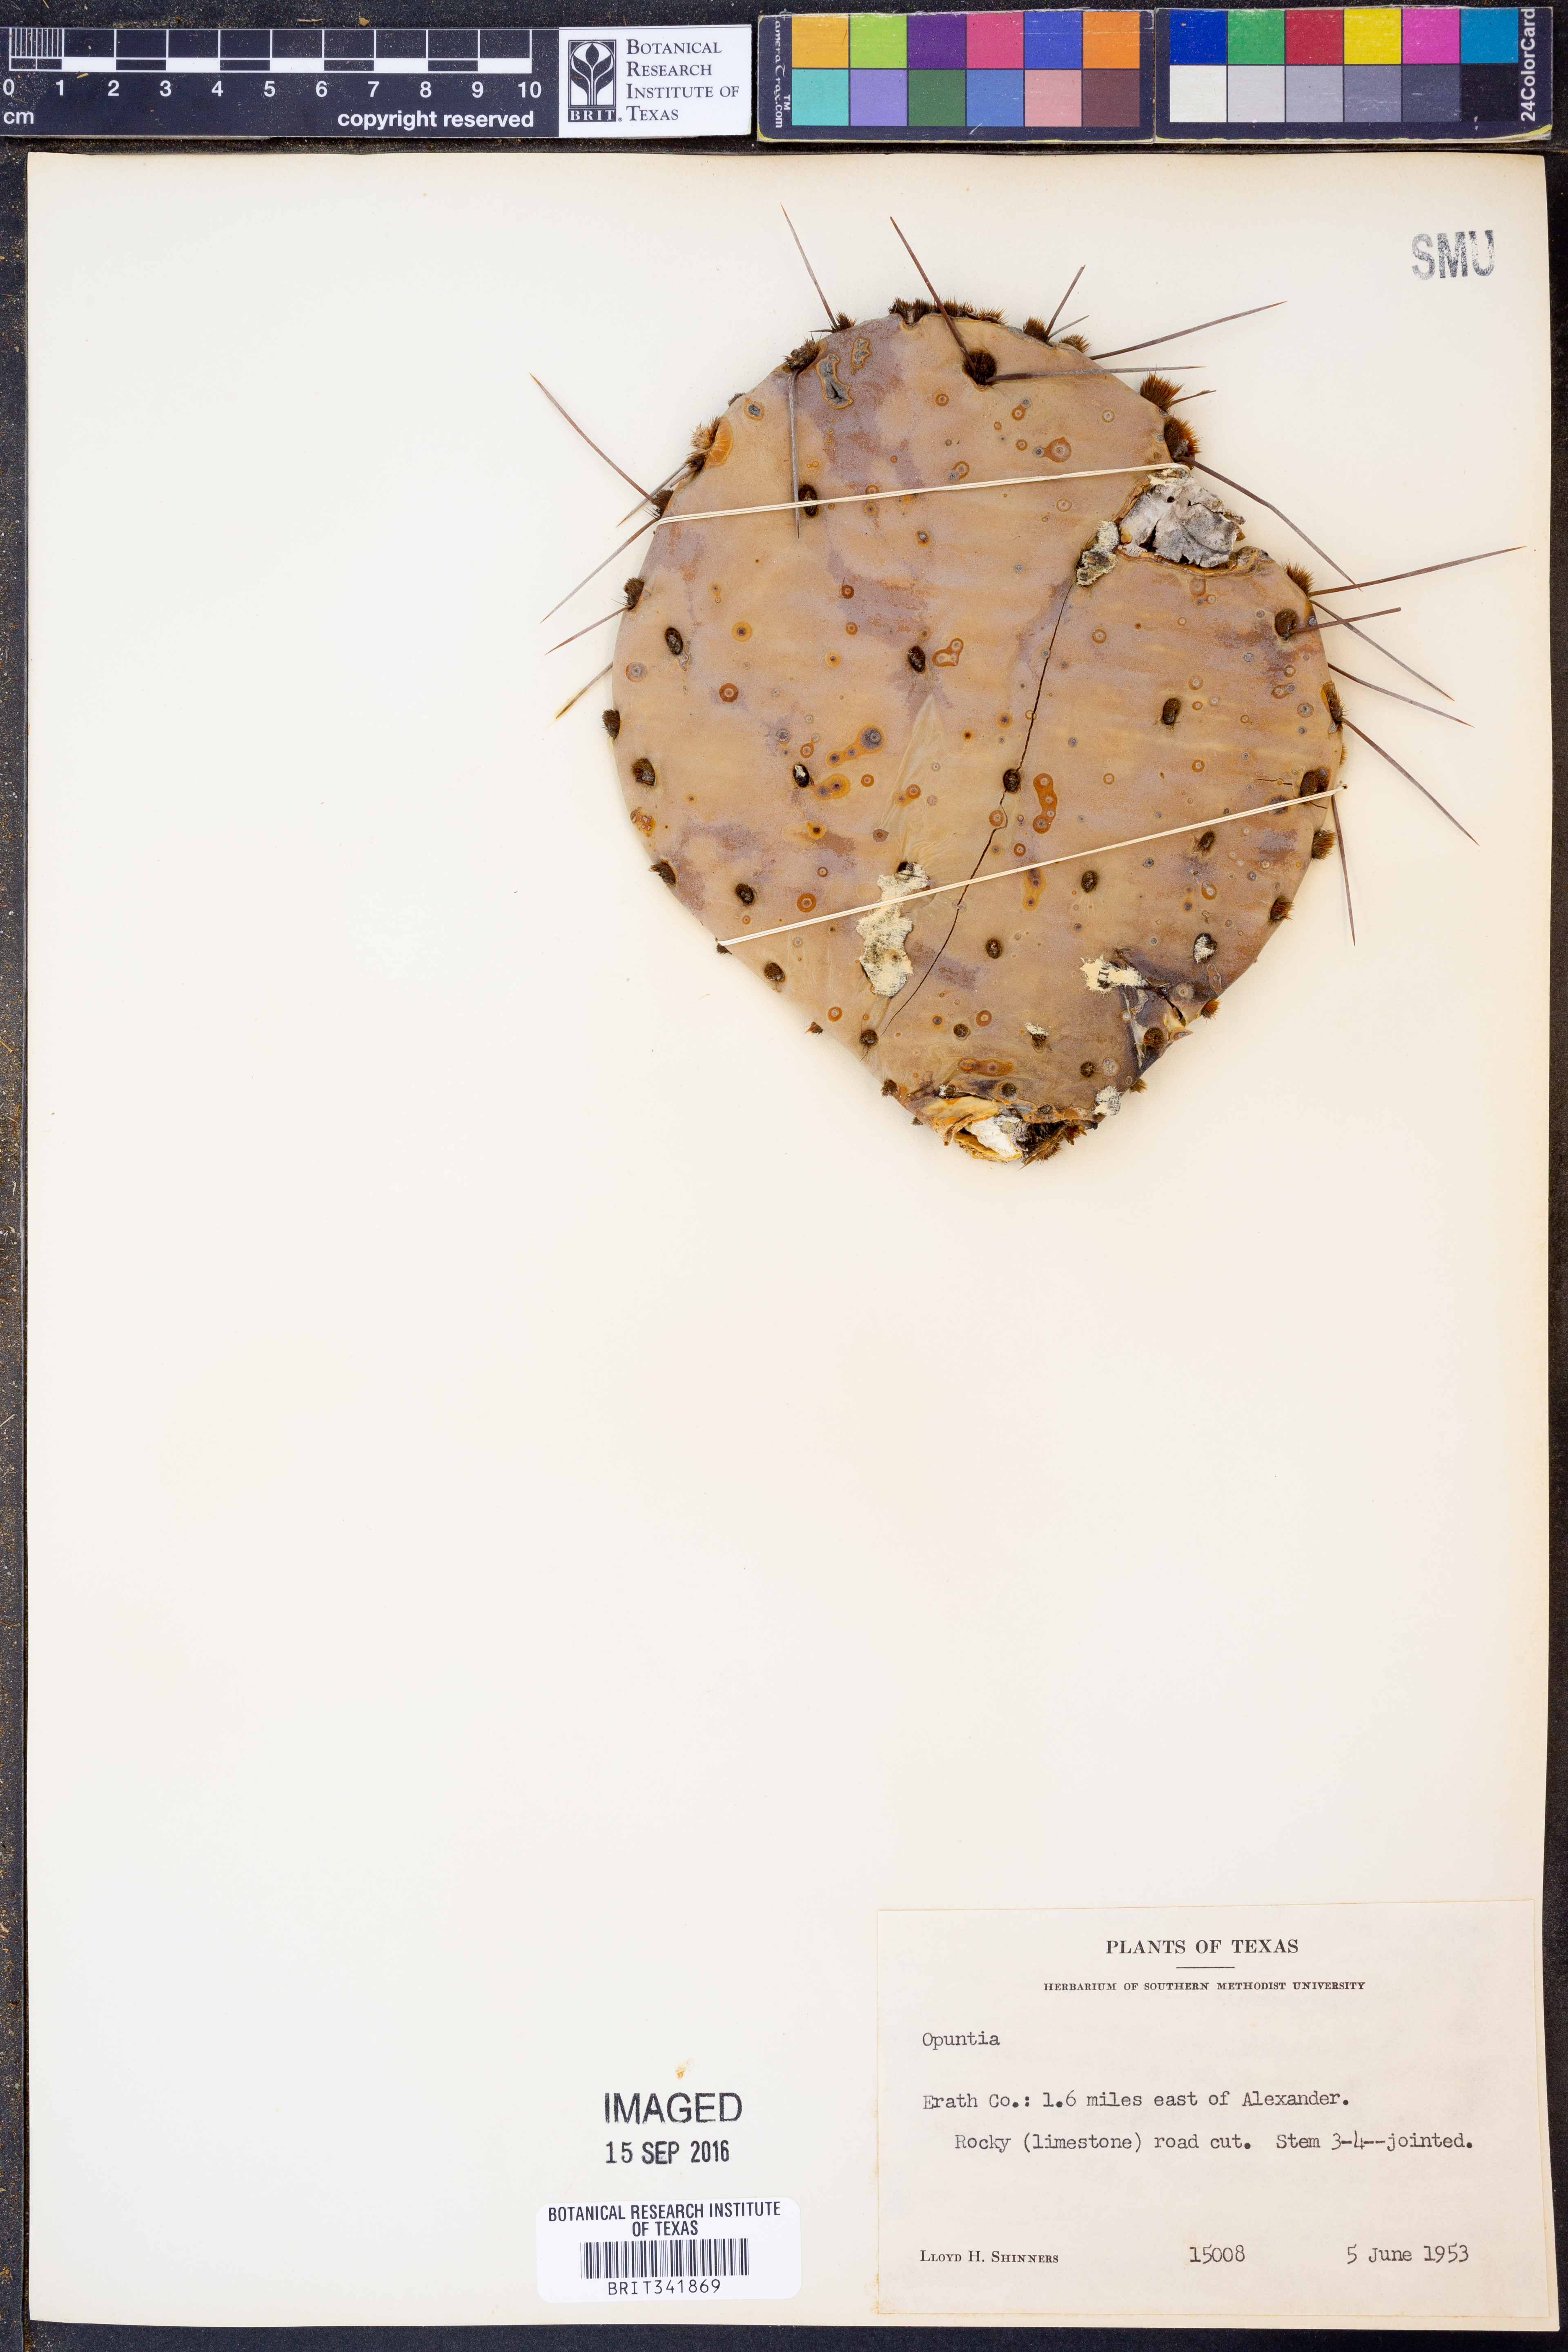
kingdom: Plantae
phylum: Tracheophyta
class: Magnoliopsida
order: Caryophyllales
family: Cactaceae
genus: Opuntia
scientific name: Opuntia
